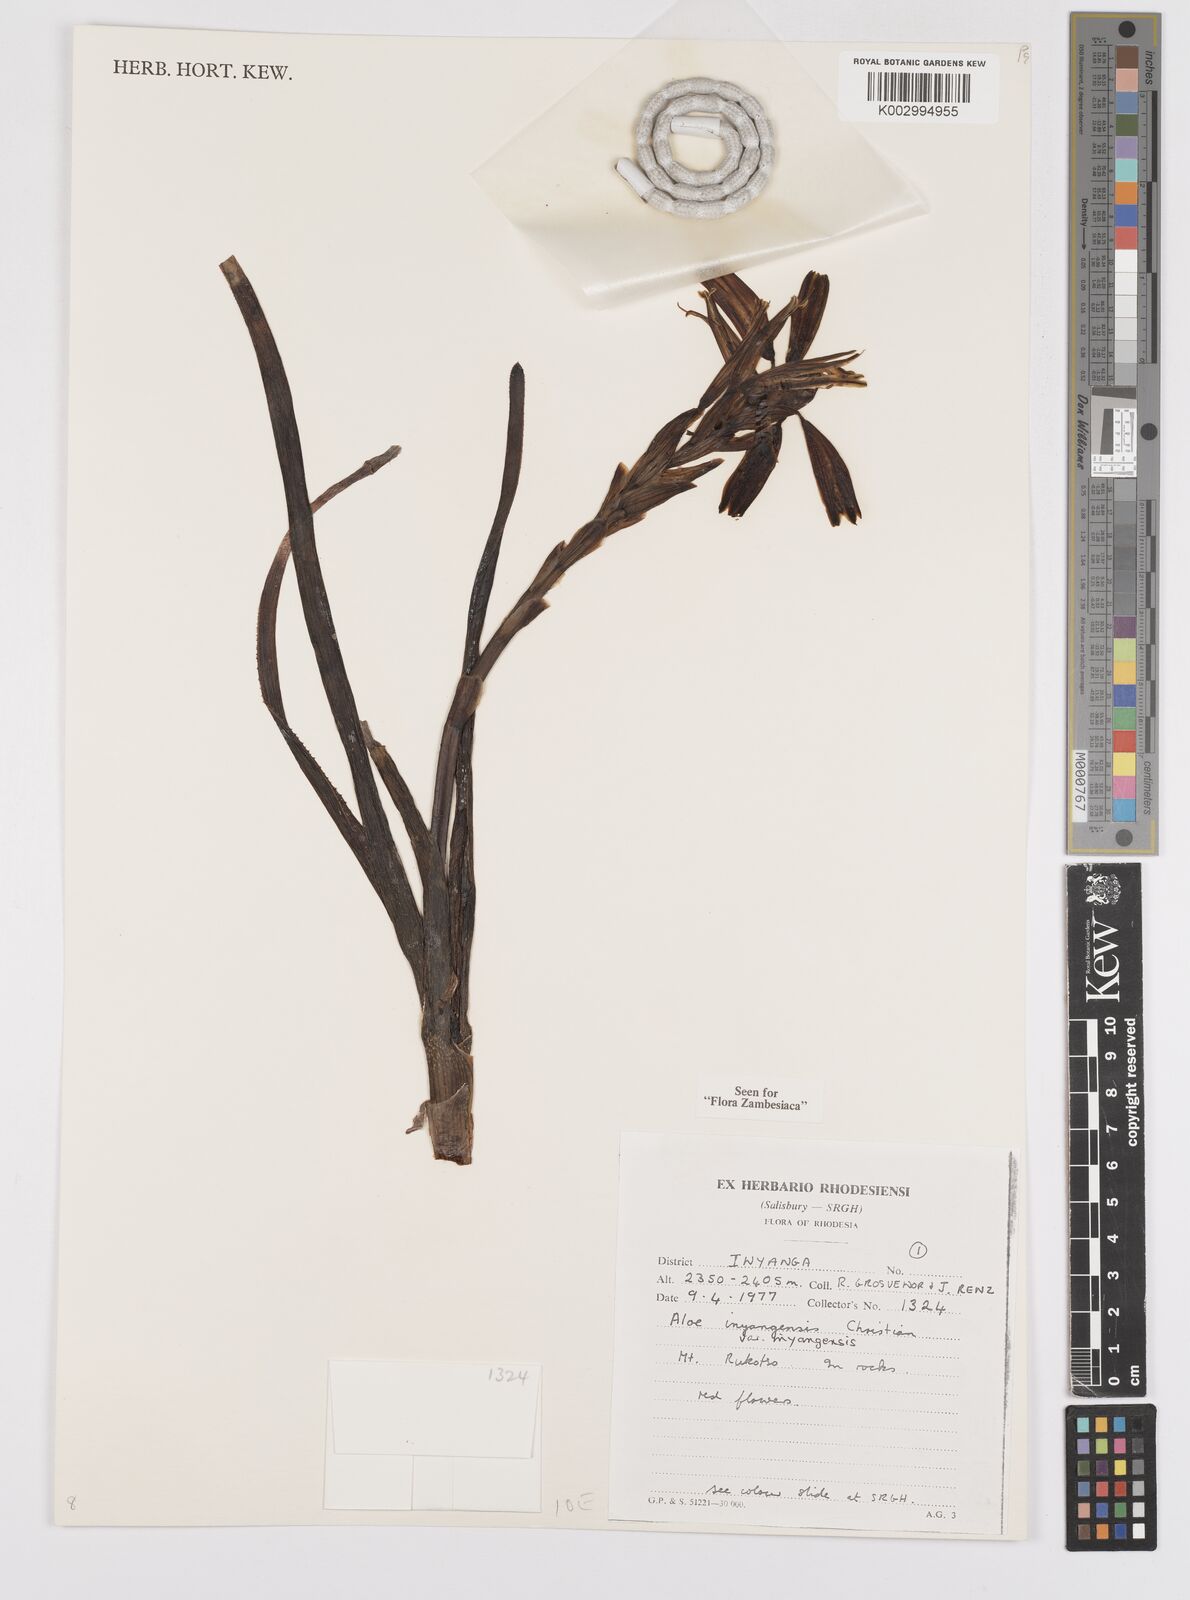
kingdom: Plantae
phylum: Tracheophyta
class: Liliopsida
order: Asparagales
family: Asphodelaceae
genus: Aloe
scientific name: Aloe inyangensis
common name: Inyanga aloe
